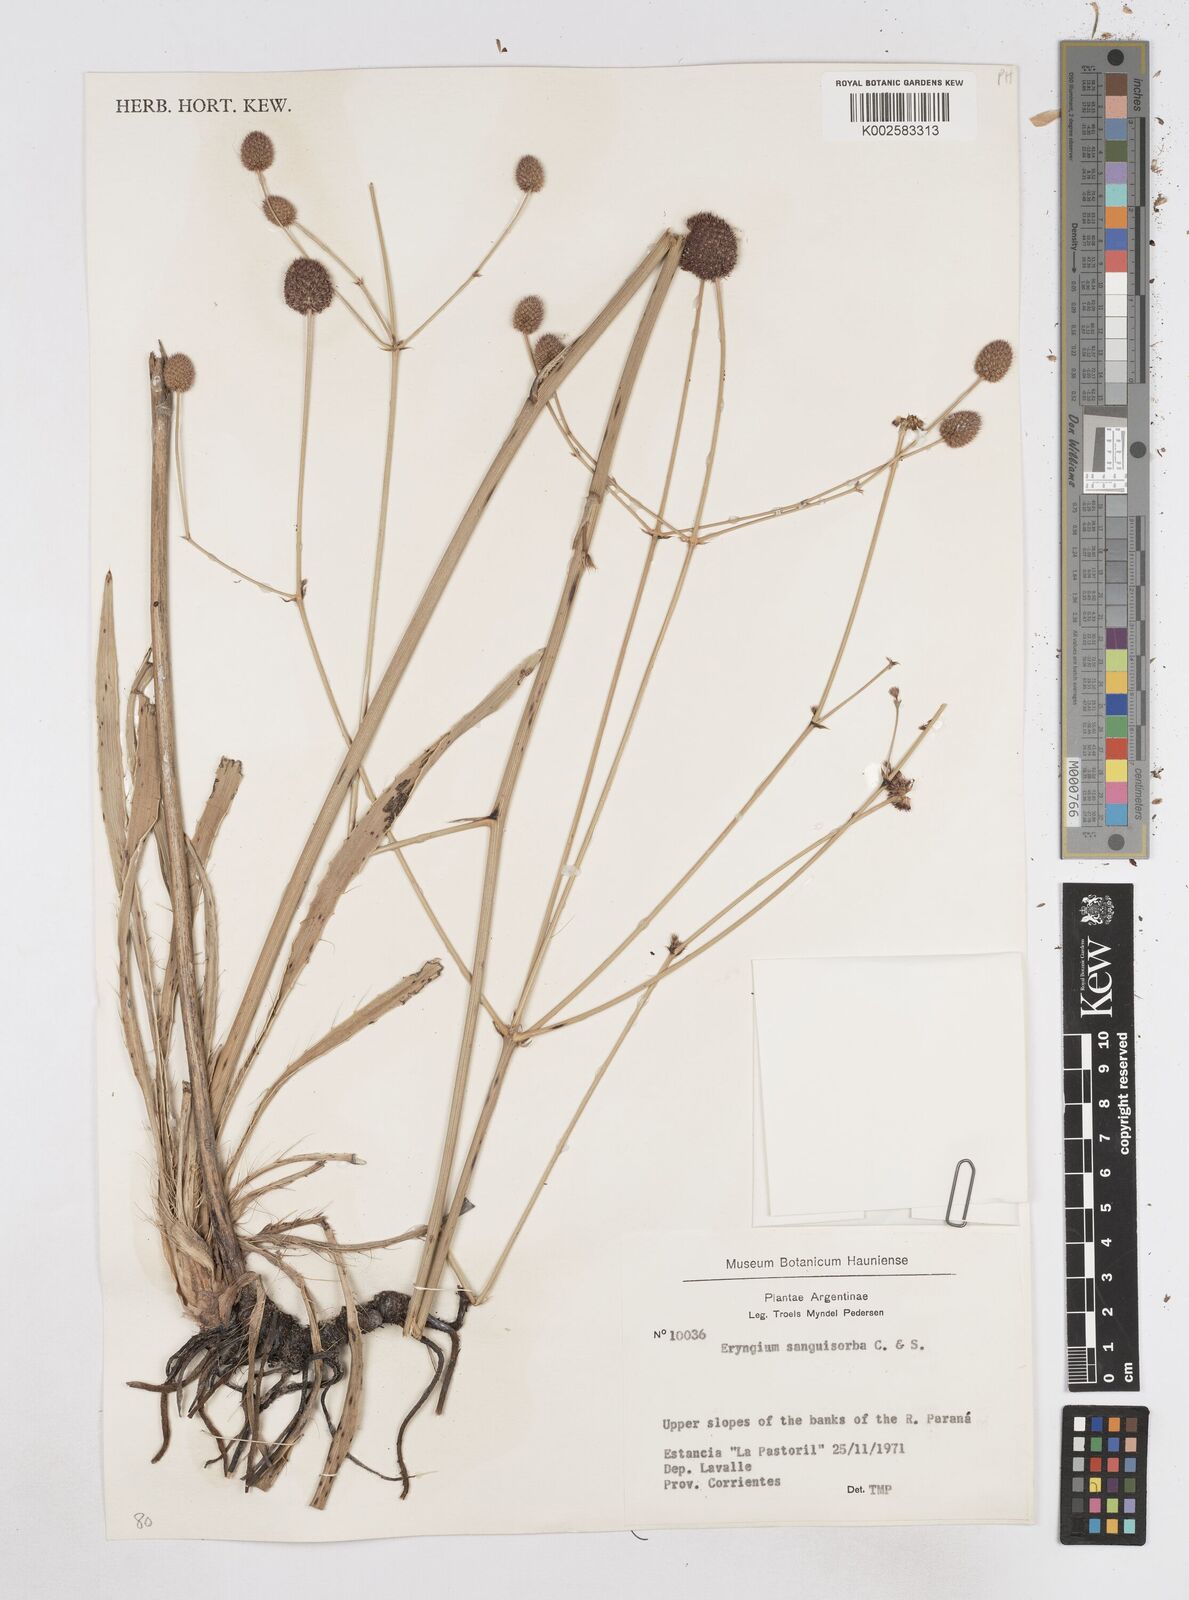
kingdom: Plantae
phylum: Tracheophyta
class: Magnoliopsida
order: Apiales
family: Apiaceae
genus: Eryngium
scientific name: Eryngium sanguisorba
